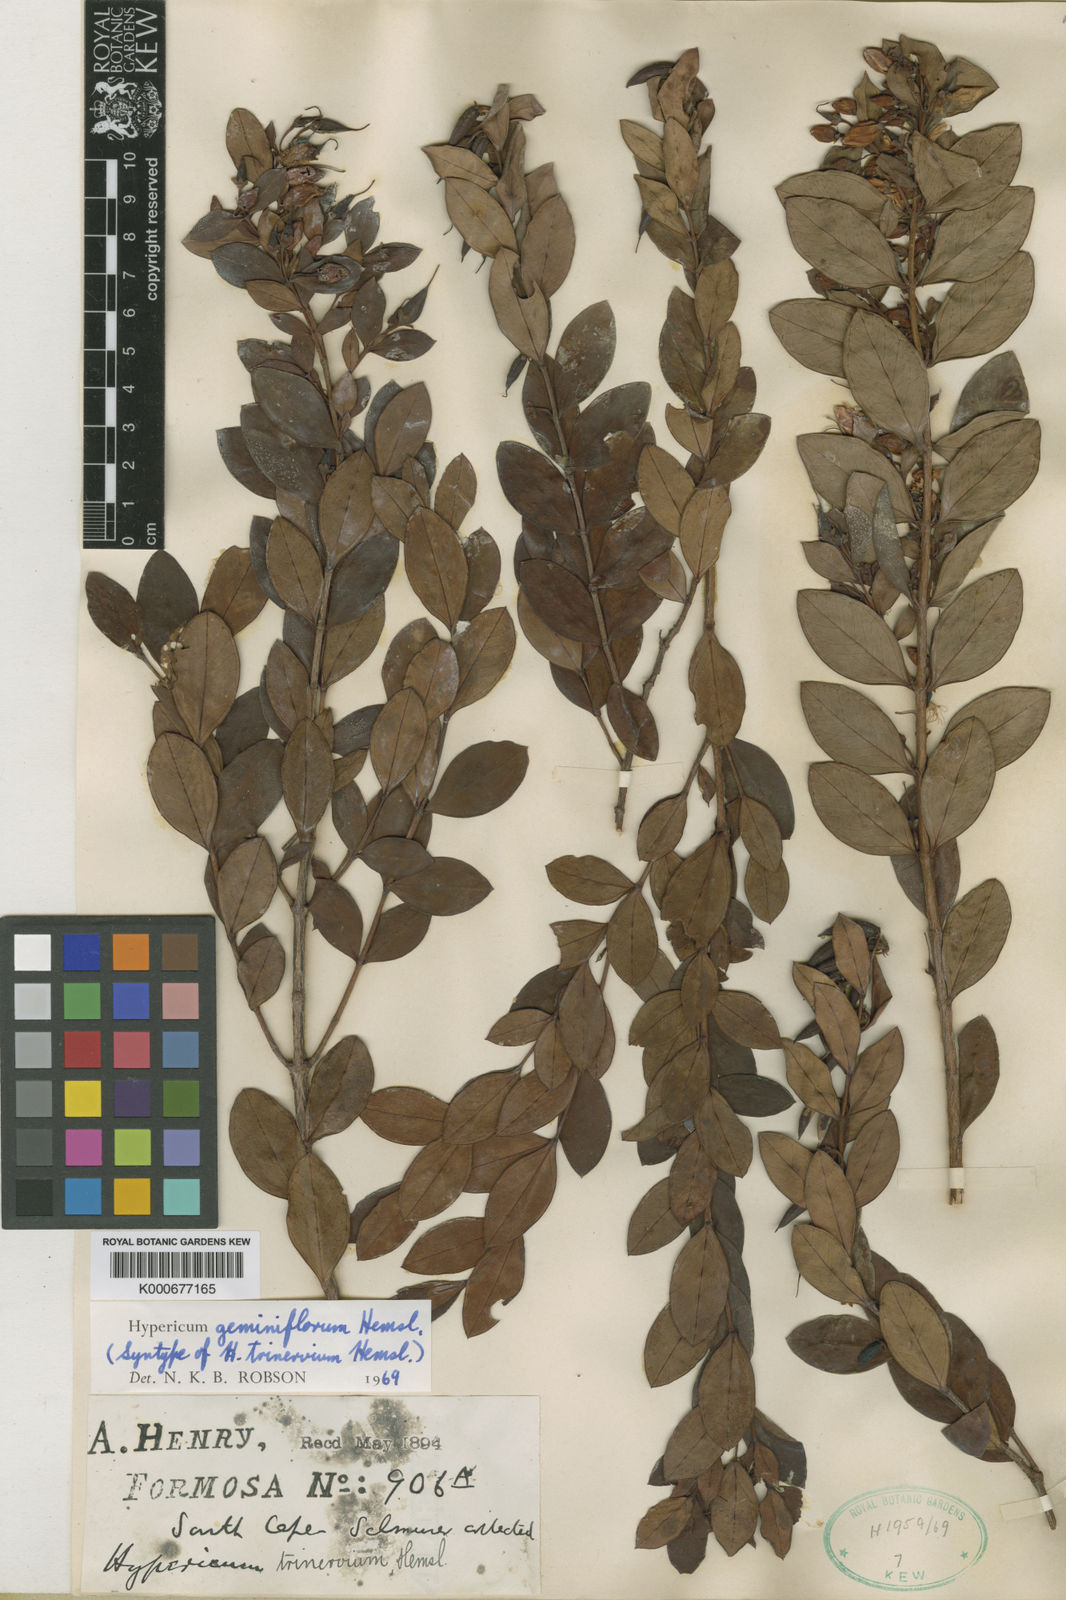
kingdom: Plantae
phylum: Tracheophyta
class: Magnoliopsida
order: Malpighiales
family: Hypericaceae
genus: Hypericum
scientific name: Hypericum geminiflorum
